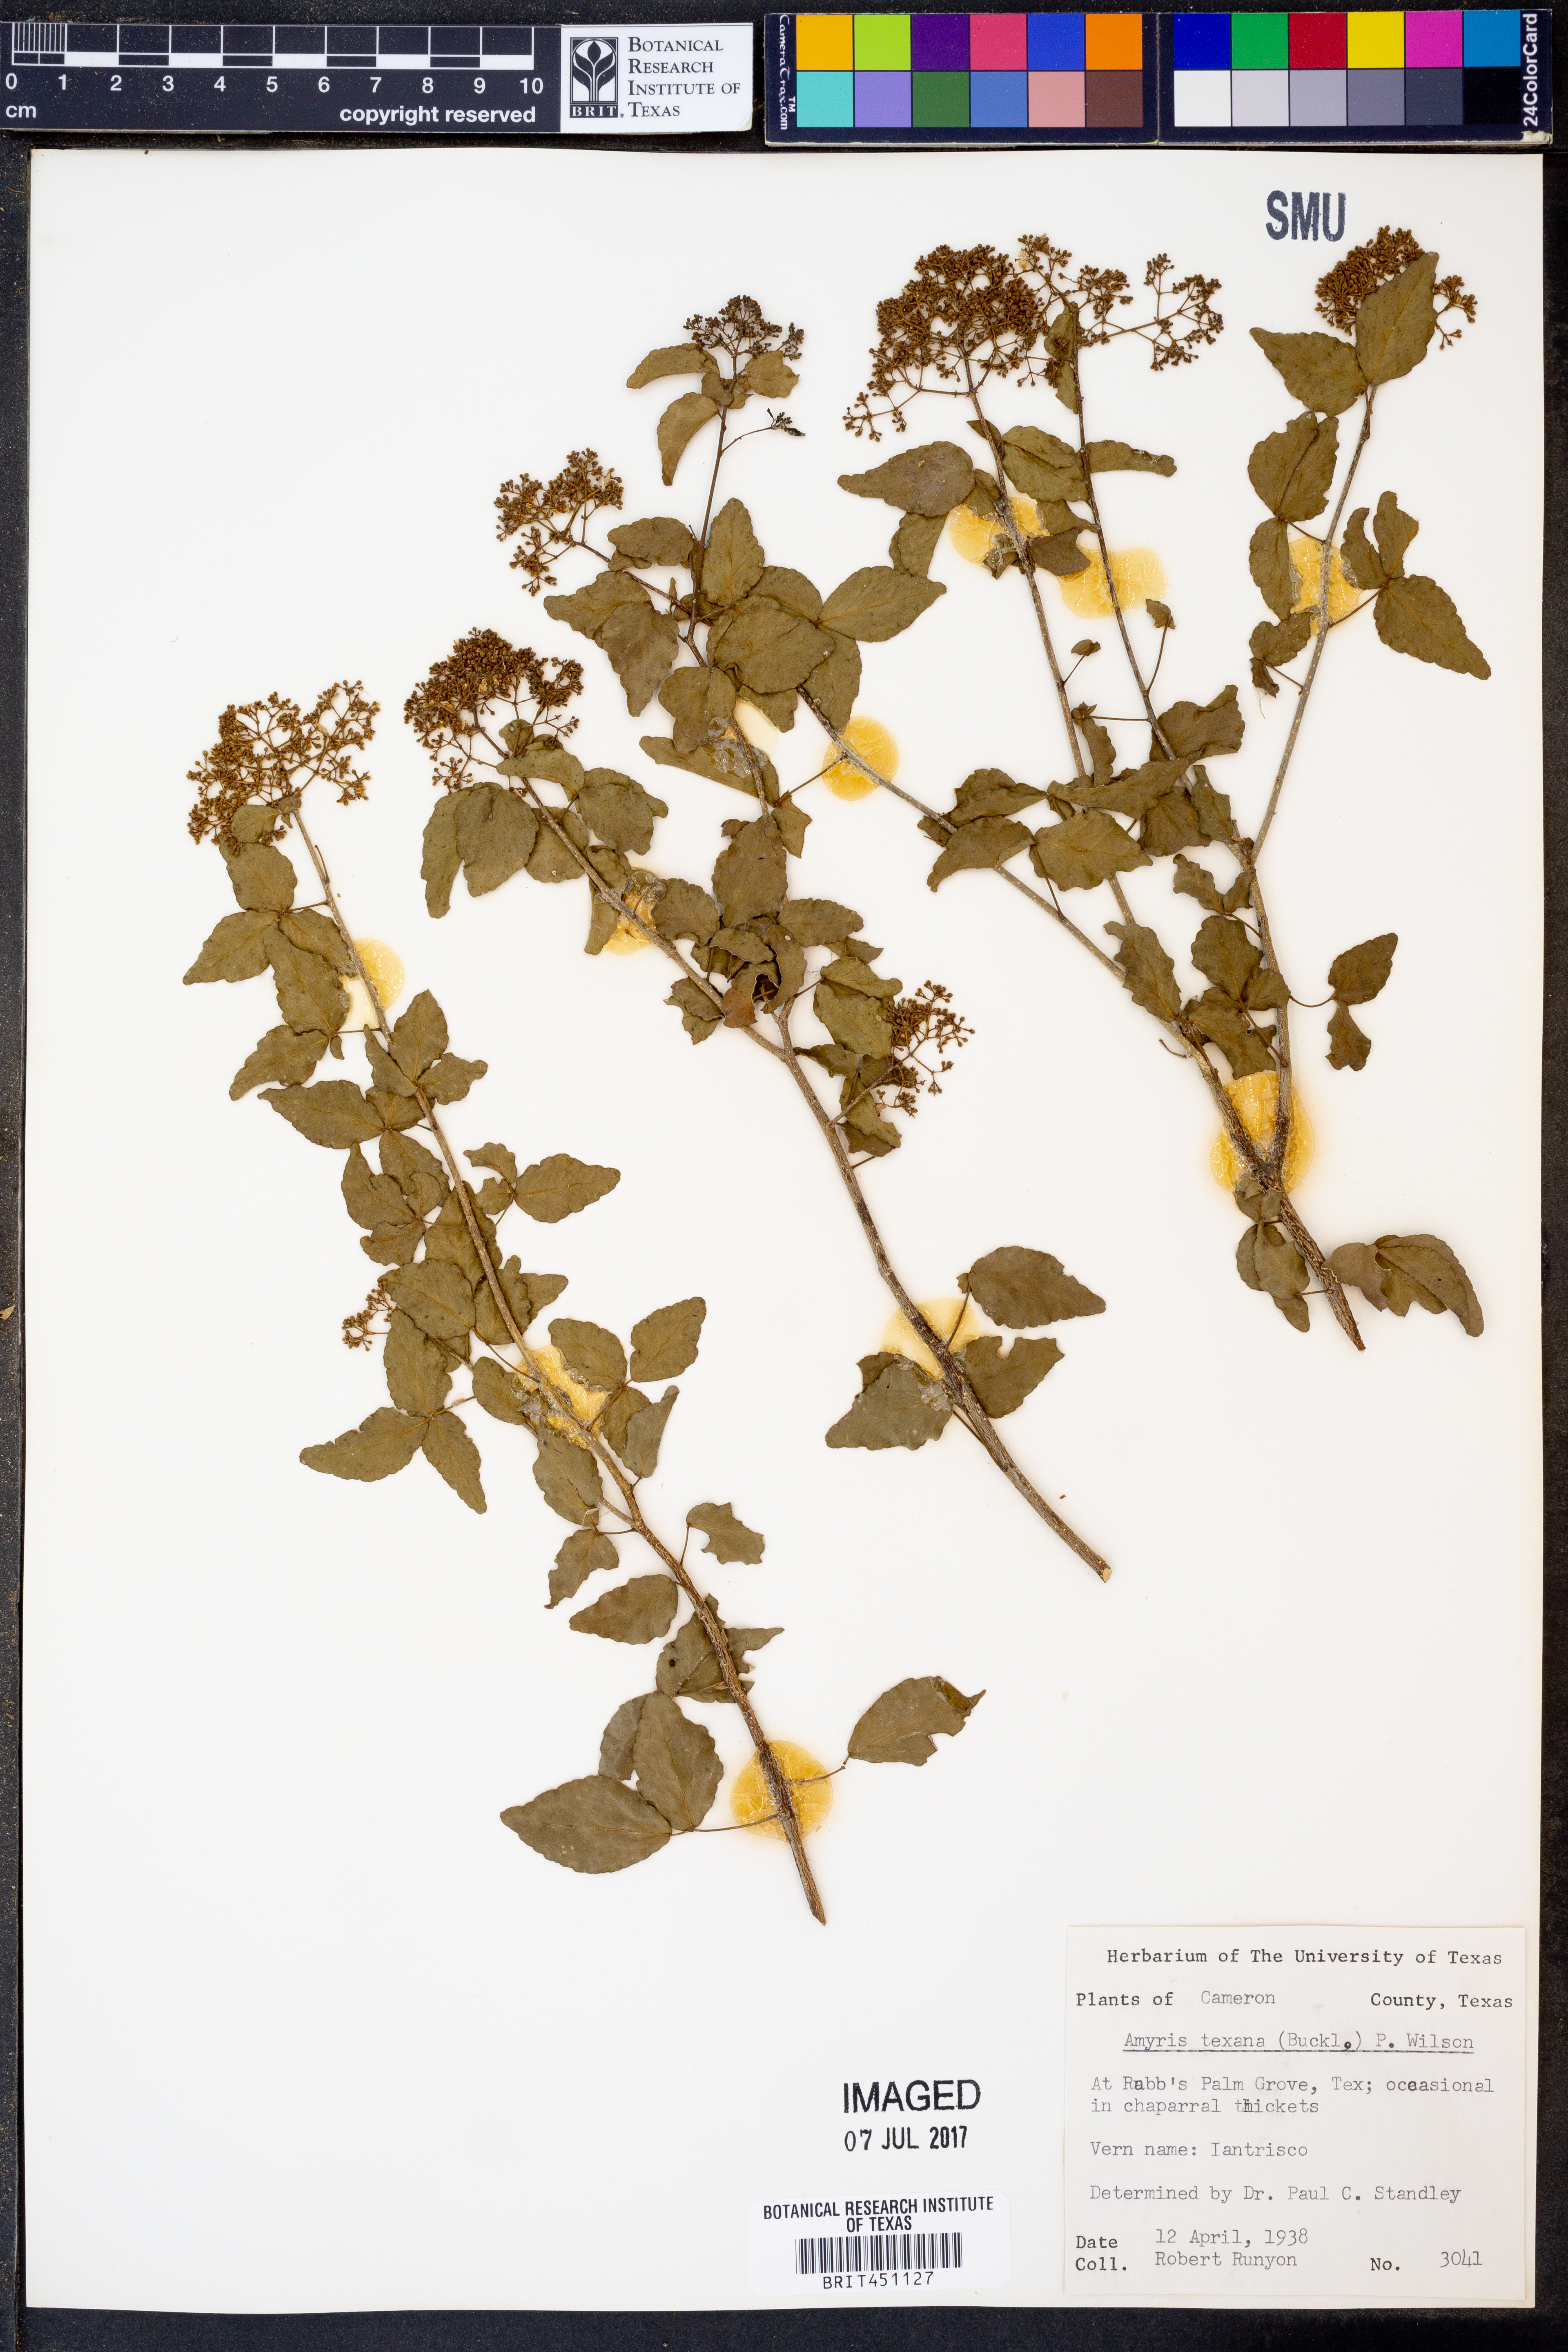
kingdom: Plantae
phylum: Tracheophyta
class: Magnoliopsida
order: Sapindales
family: Rutaceae
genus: Amyris
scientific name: Amyris texana
